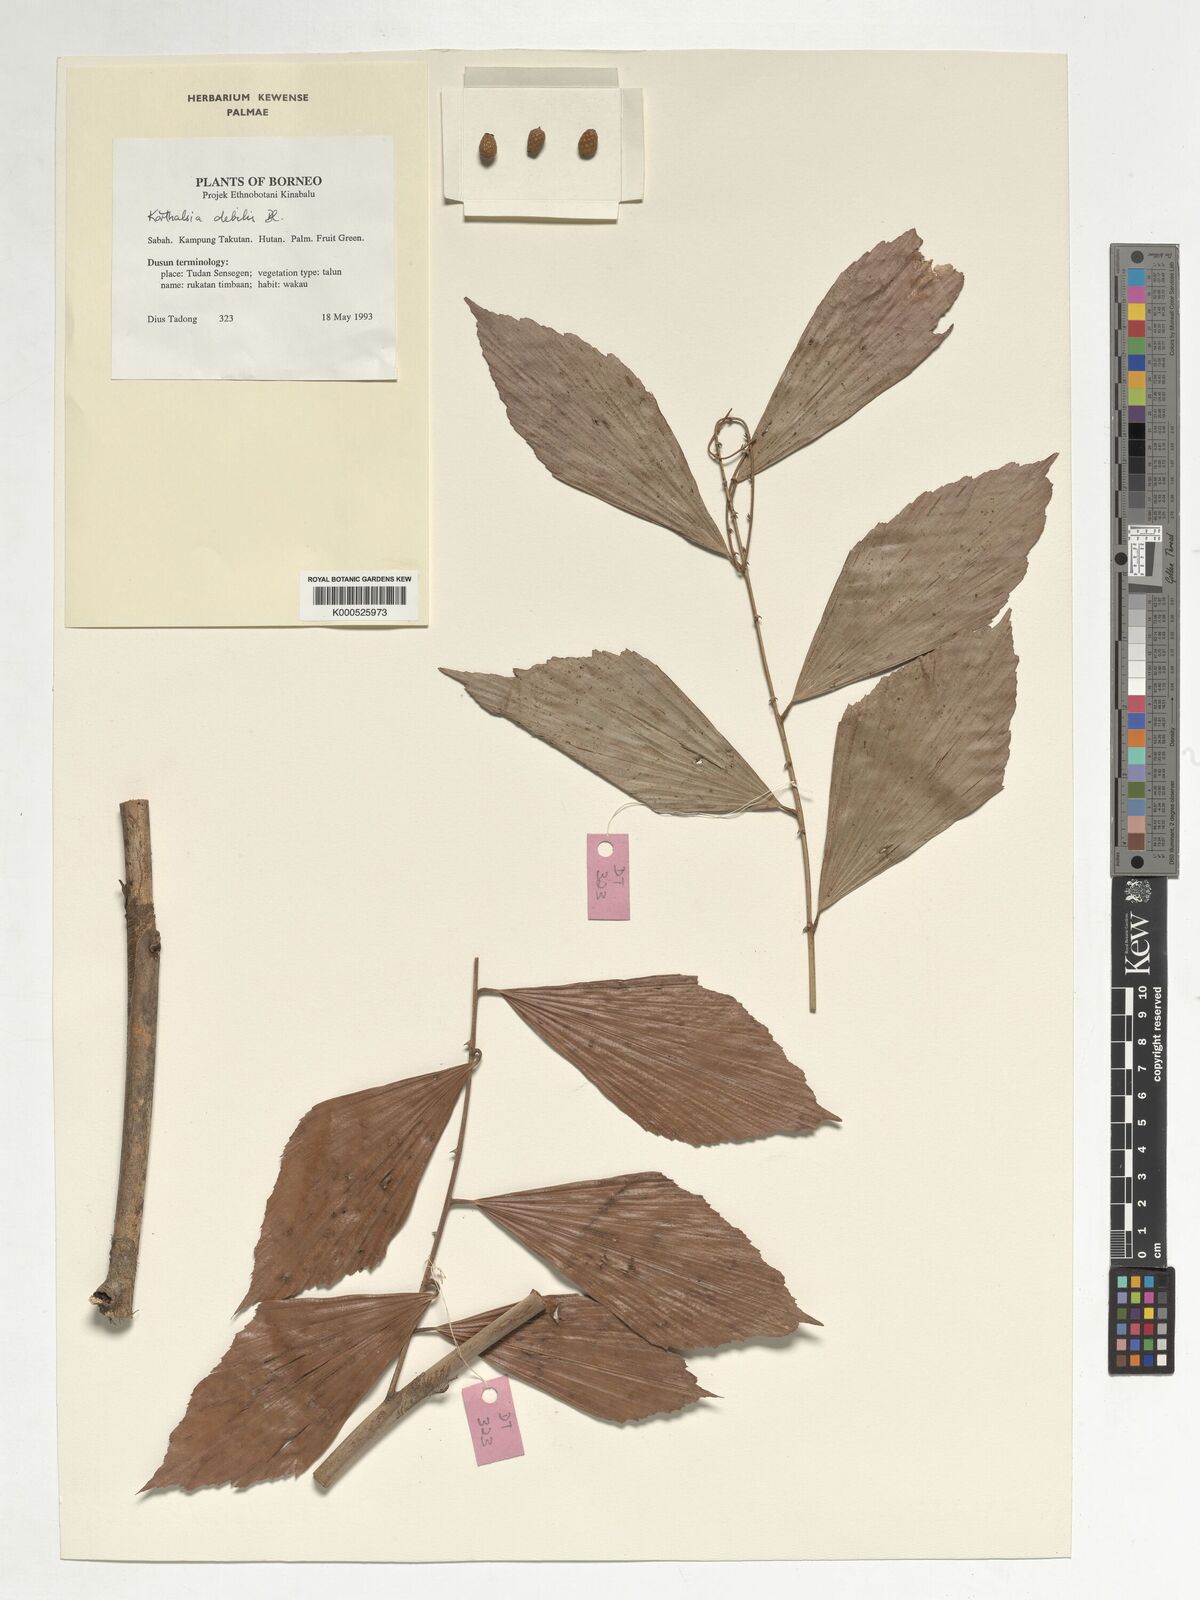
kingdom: Plantae
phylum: Tracheophyta
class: Liliopsida
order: Arecales
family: Arecaceae
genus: Korthalsia
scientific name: Korthalsia debilis
